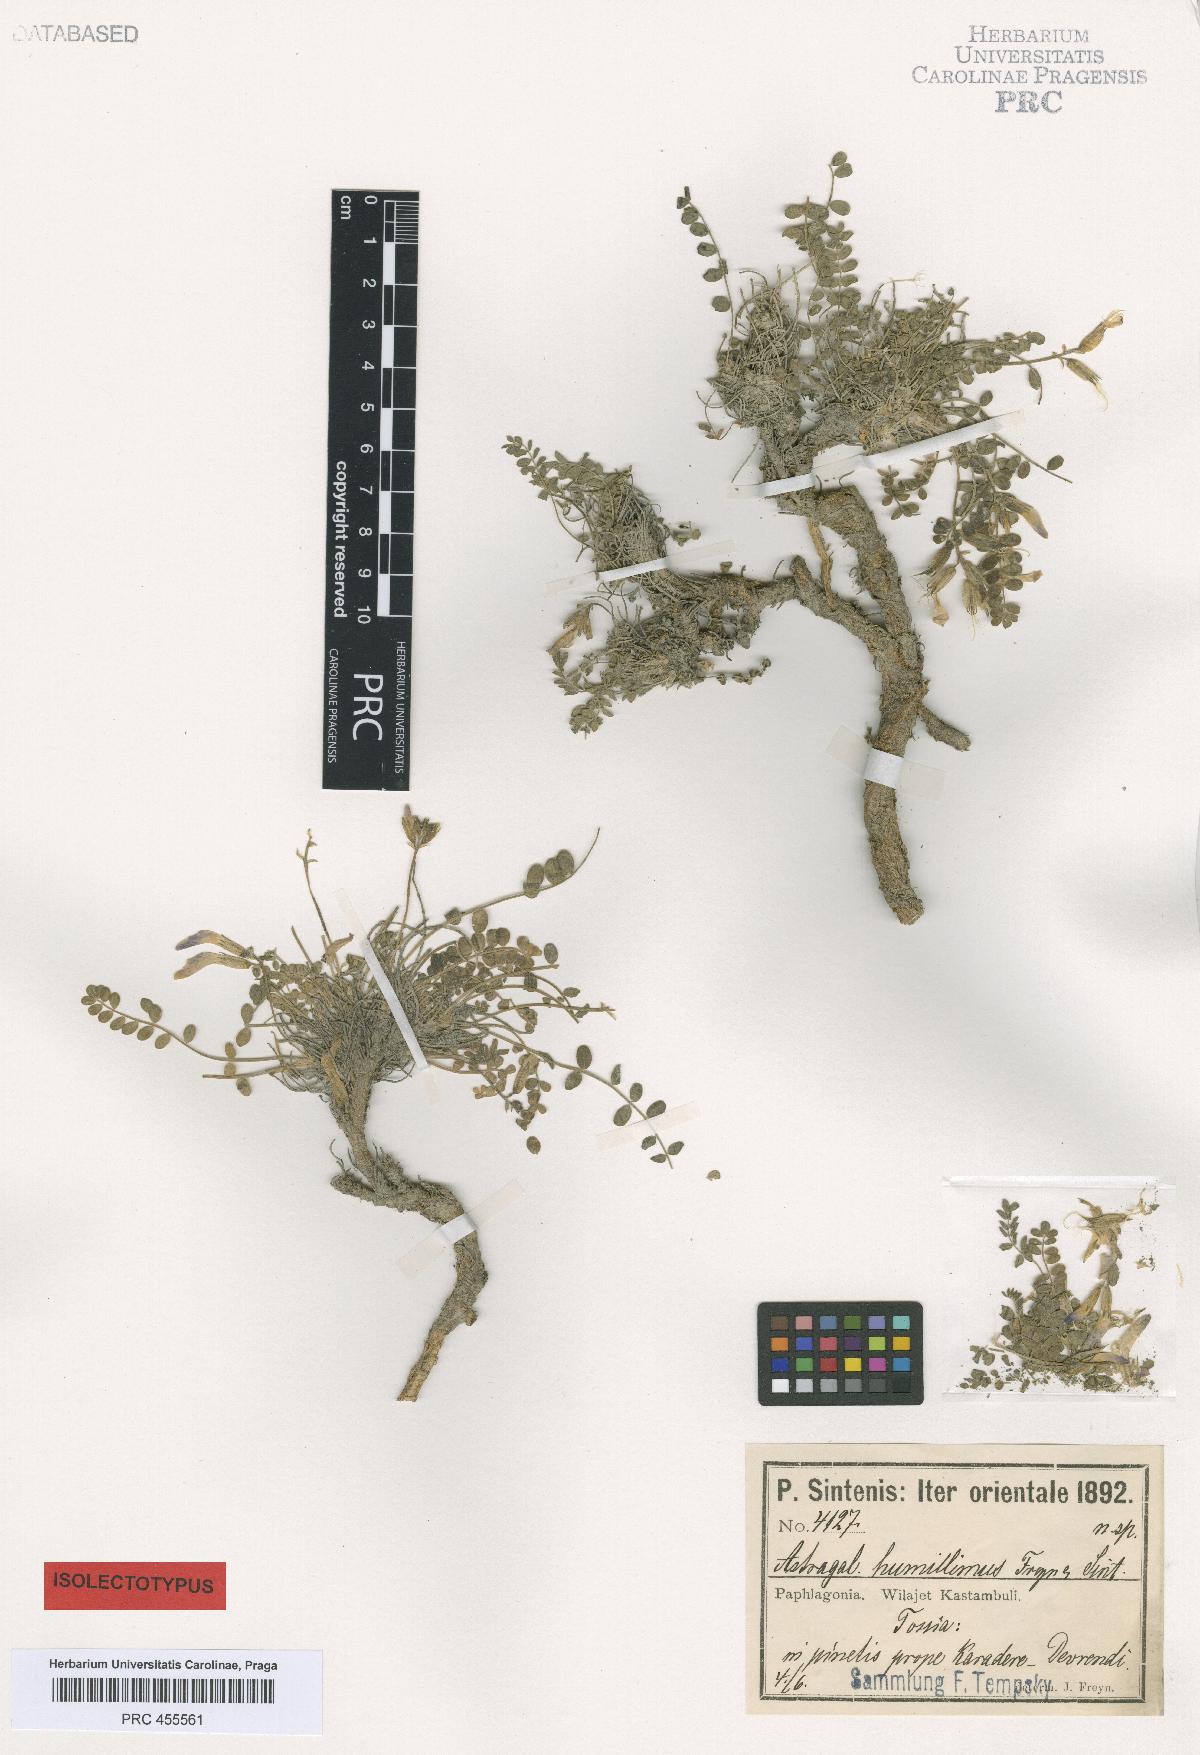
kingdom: Plantae
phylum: Tracheophyta
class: Magnoliopsida
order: Fabales
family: Fabaceae
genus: Astragalus
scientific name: Astragalus prosgaeus
